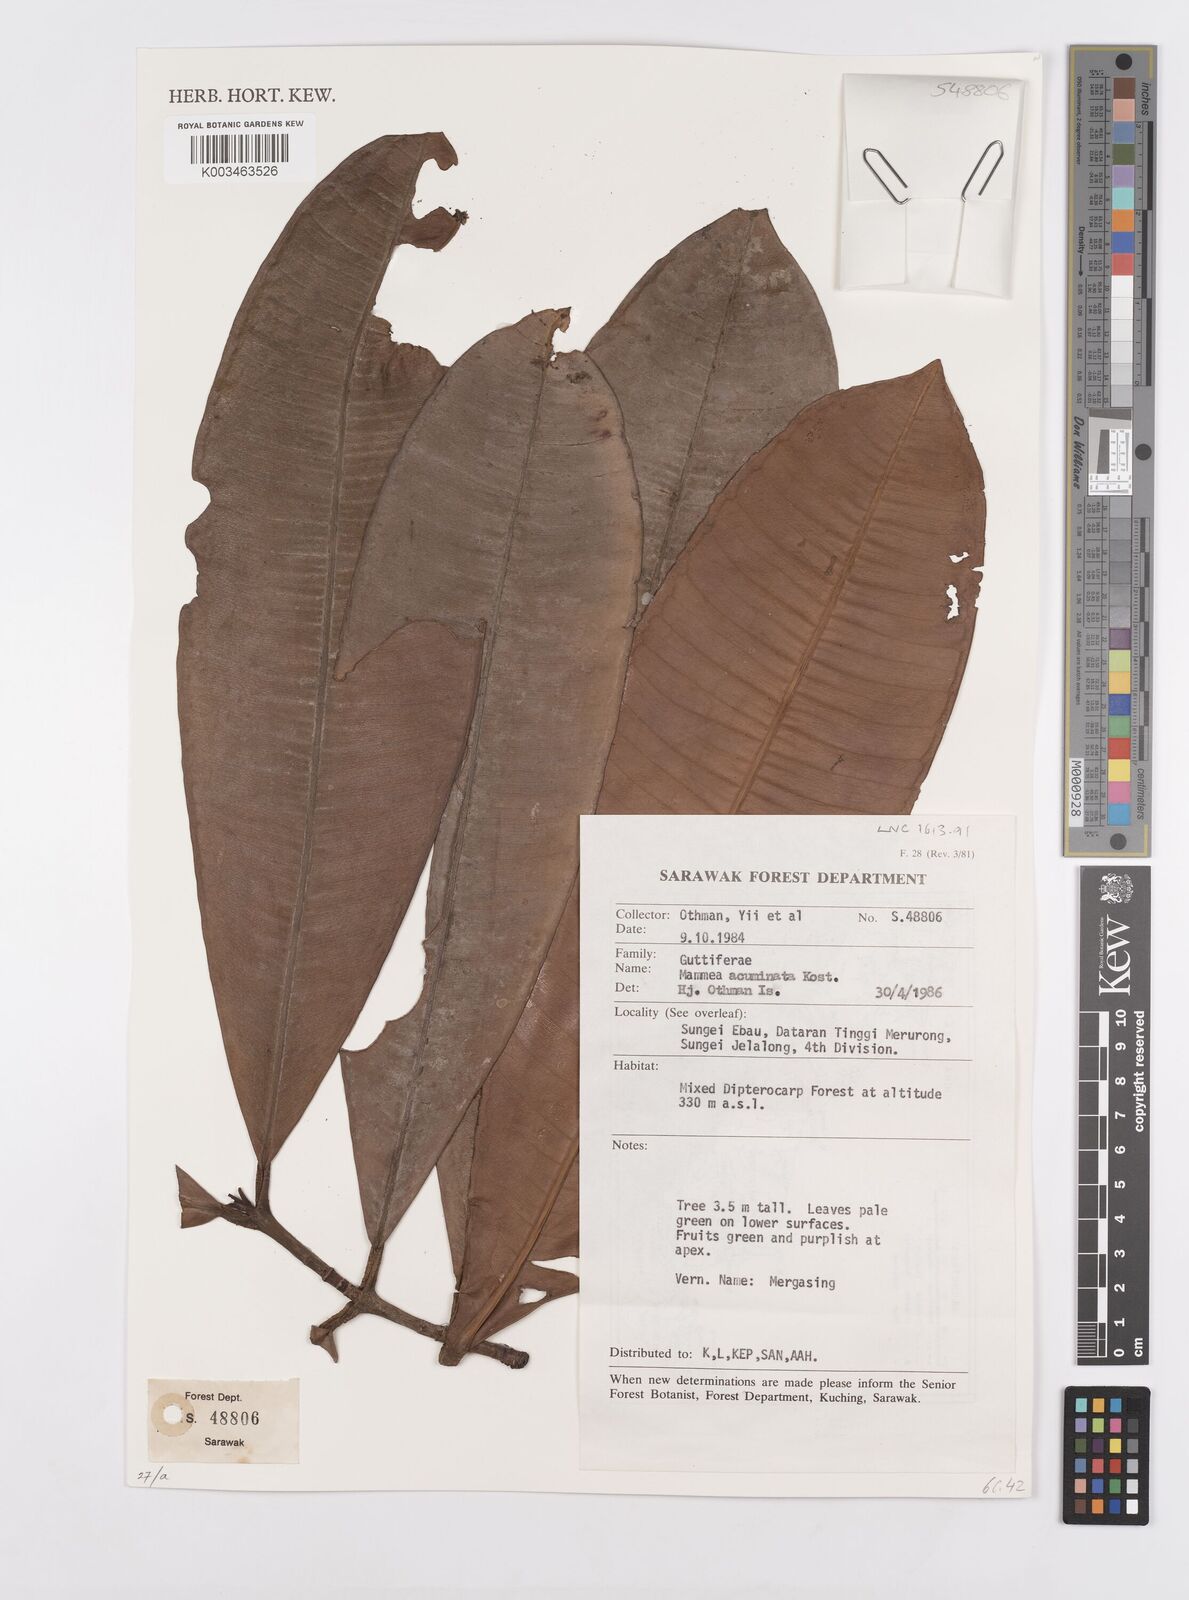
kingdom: Plantae
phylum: Tracheophyta
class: Magnoliopsida
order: Malpighiales
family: Calophyllaceae
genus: Mammea
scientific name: Mammea acuminata
